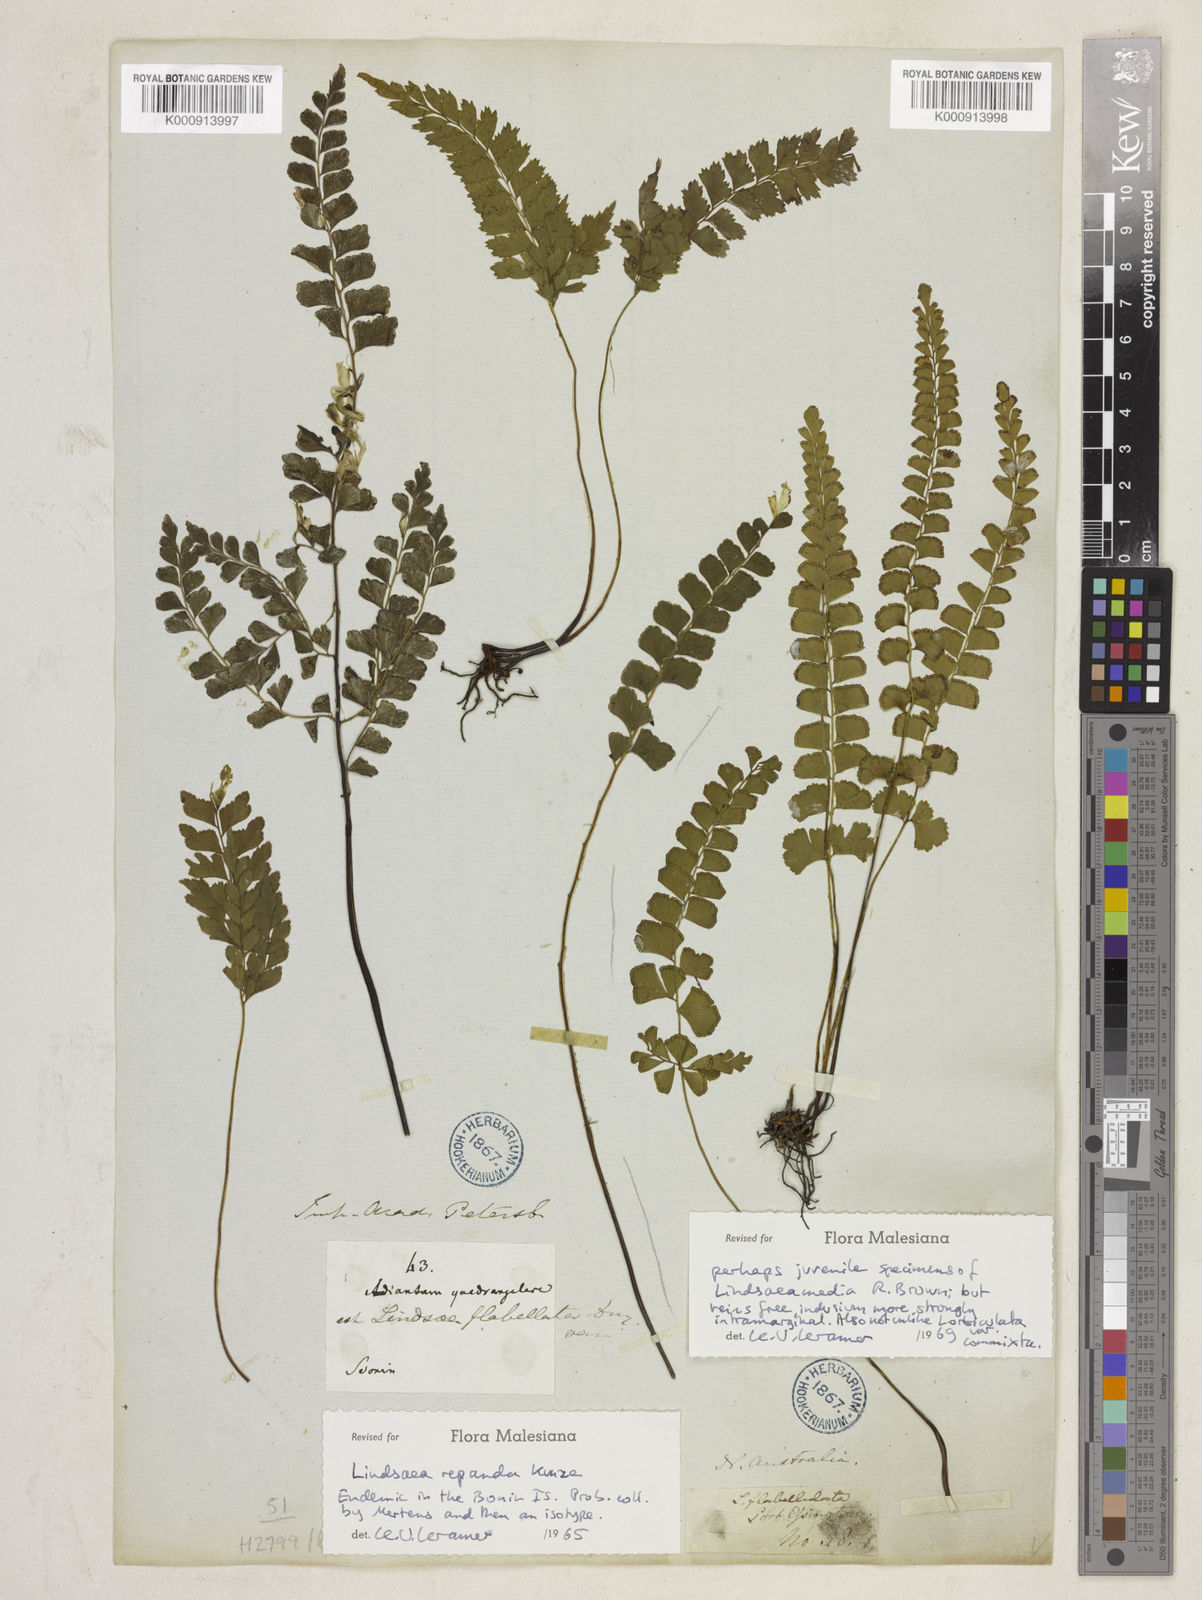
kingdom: Plantae
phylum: Tracheophyta
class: Polypodiopsida
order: Polypodiales
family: Lindsaeaceae
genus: Lindsaea
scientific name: Lindsaea repanda
